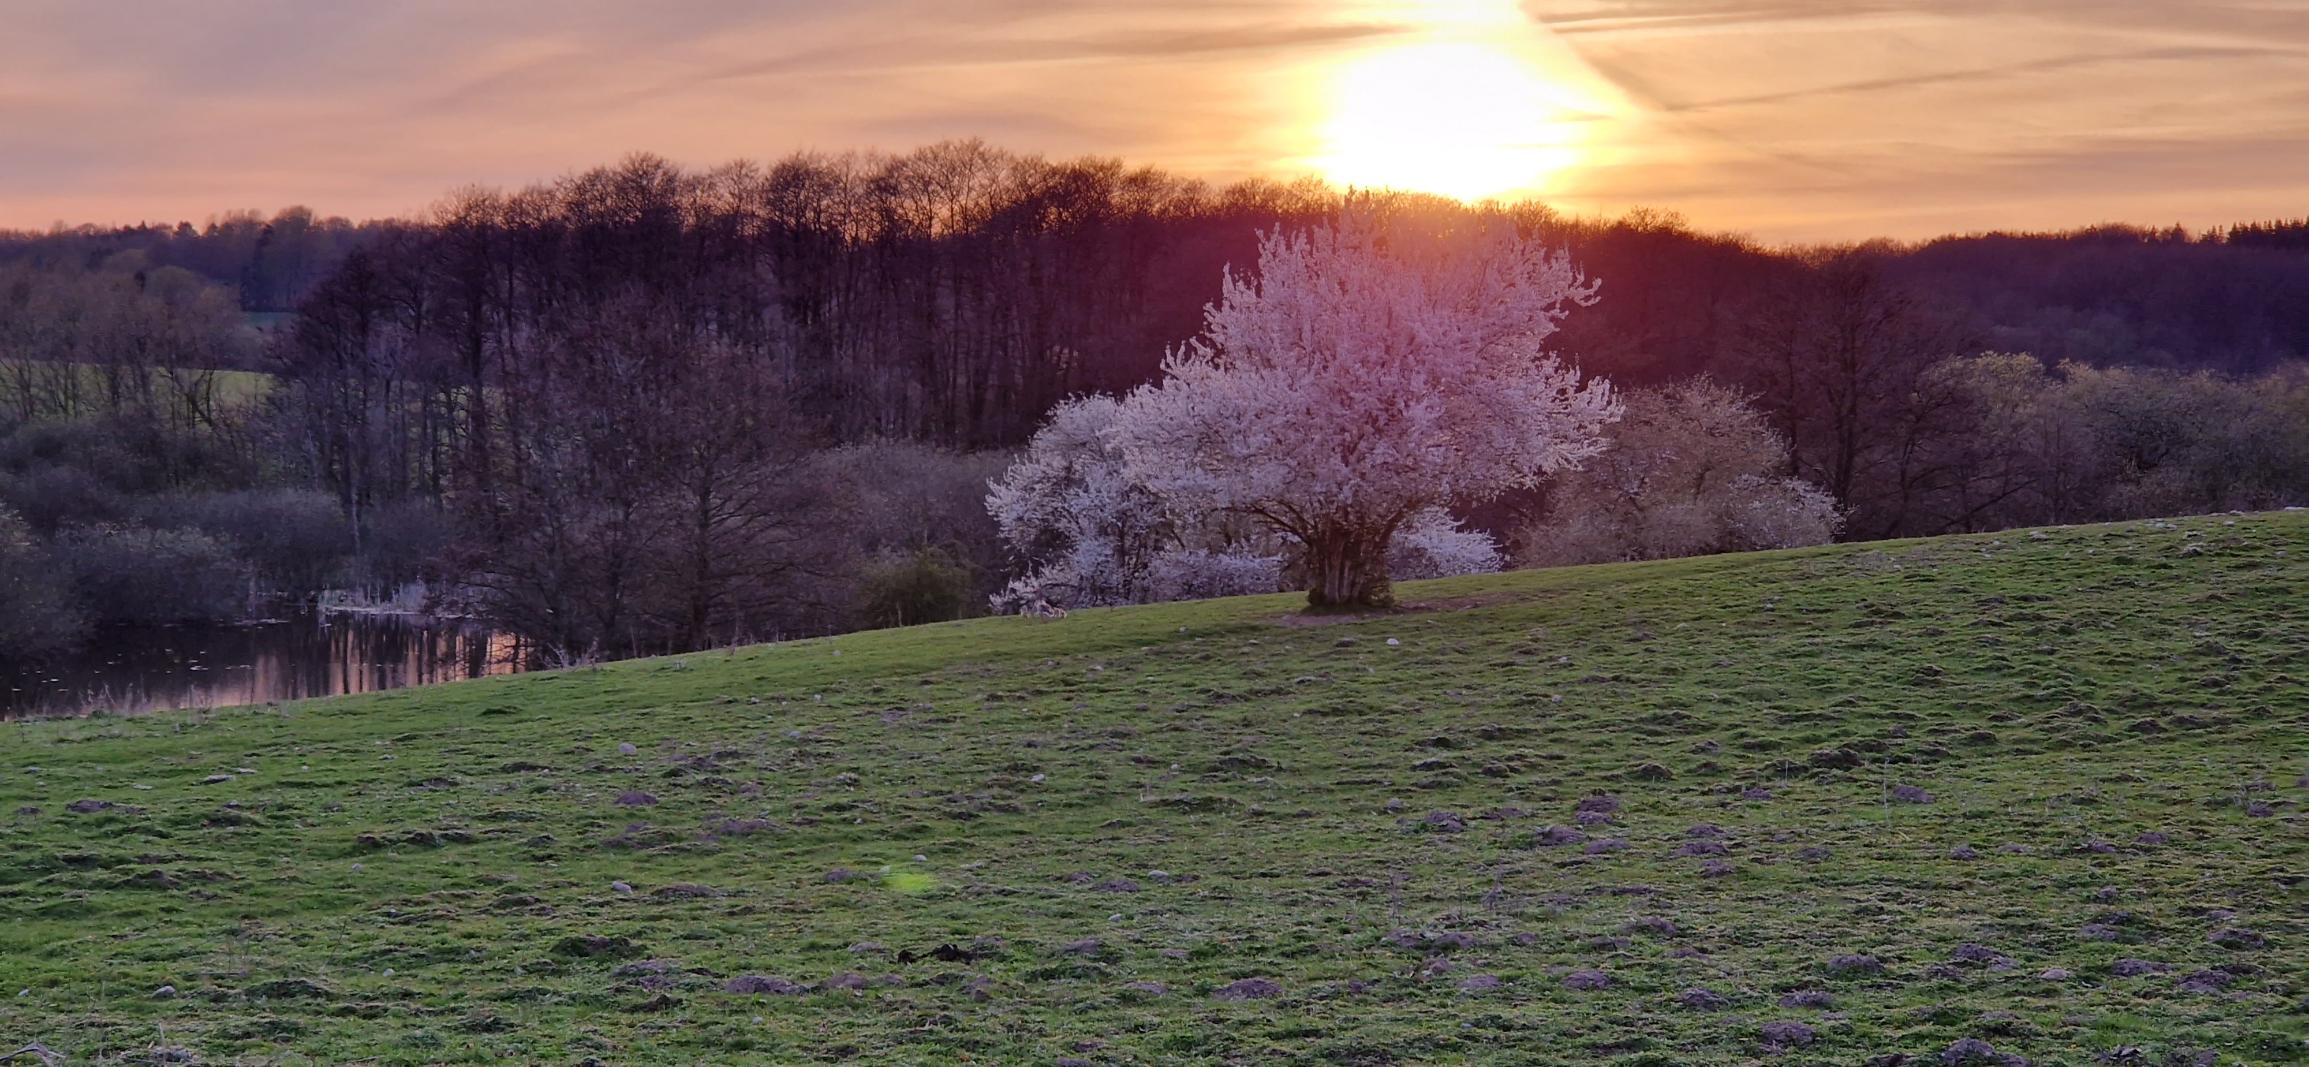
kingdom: Animalia
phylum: Chordata
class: Aves
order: Anseriformes
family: Anatidae
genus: Anser
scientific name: Anser anser
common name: Grågås
